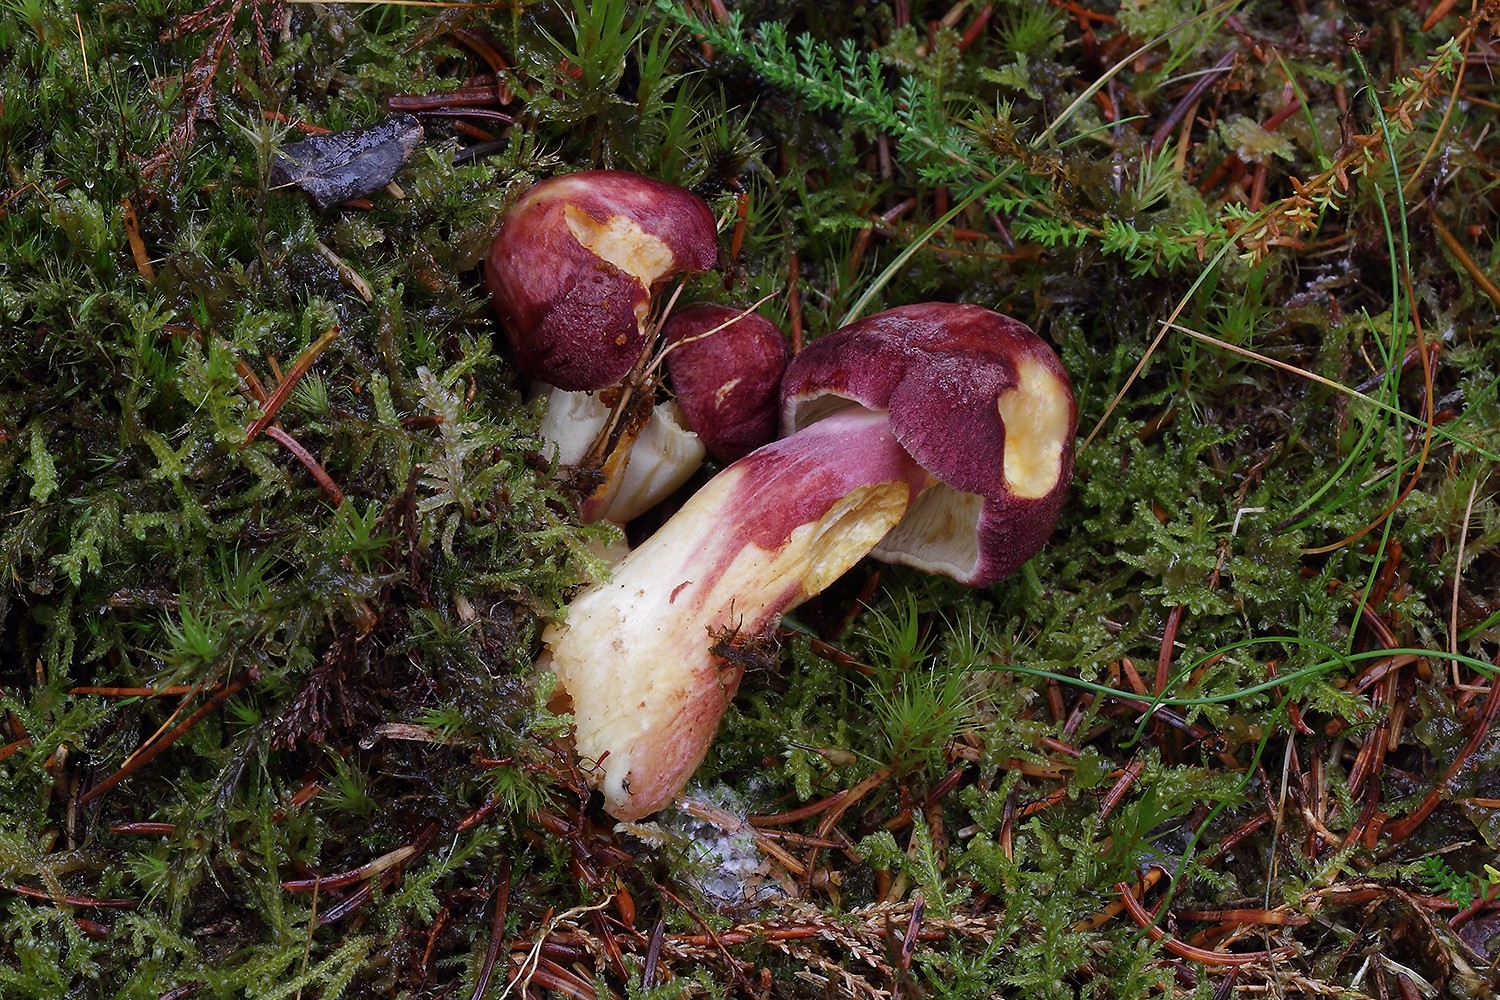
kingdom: Fungi
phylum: Basidiomycota
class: Agaricomycetes
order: Agaricales
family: Tricholomataceae
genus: Tricholomopsis
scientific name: Tricholomopsis rutilans
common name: purpur-væbnerhat
